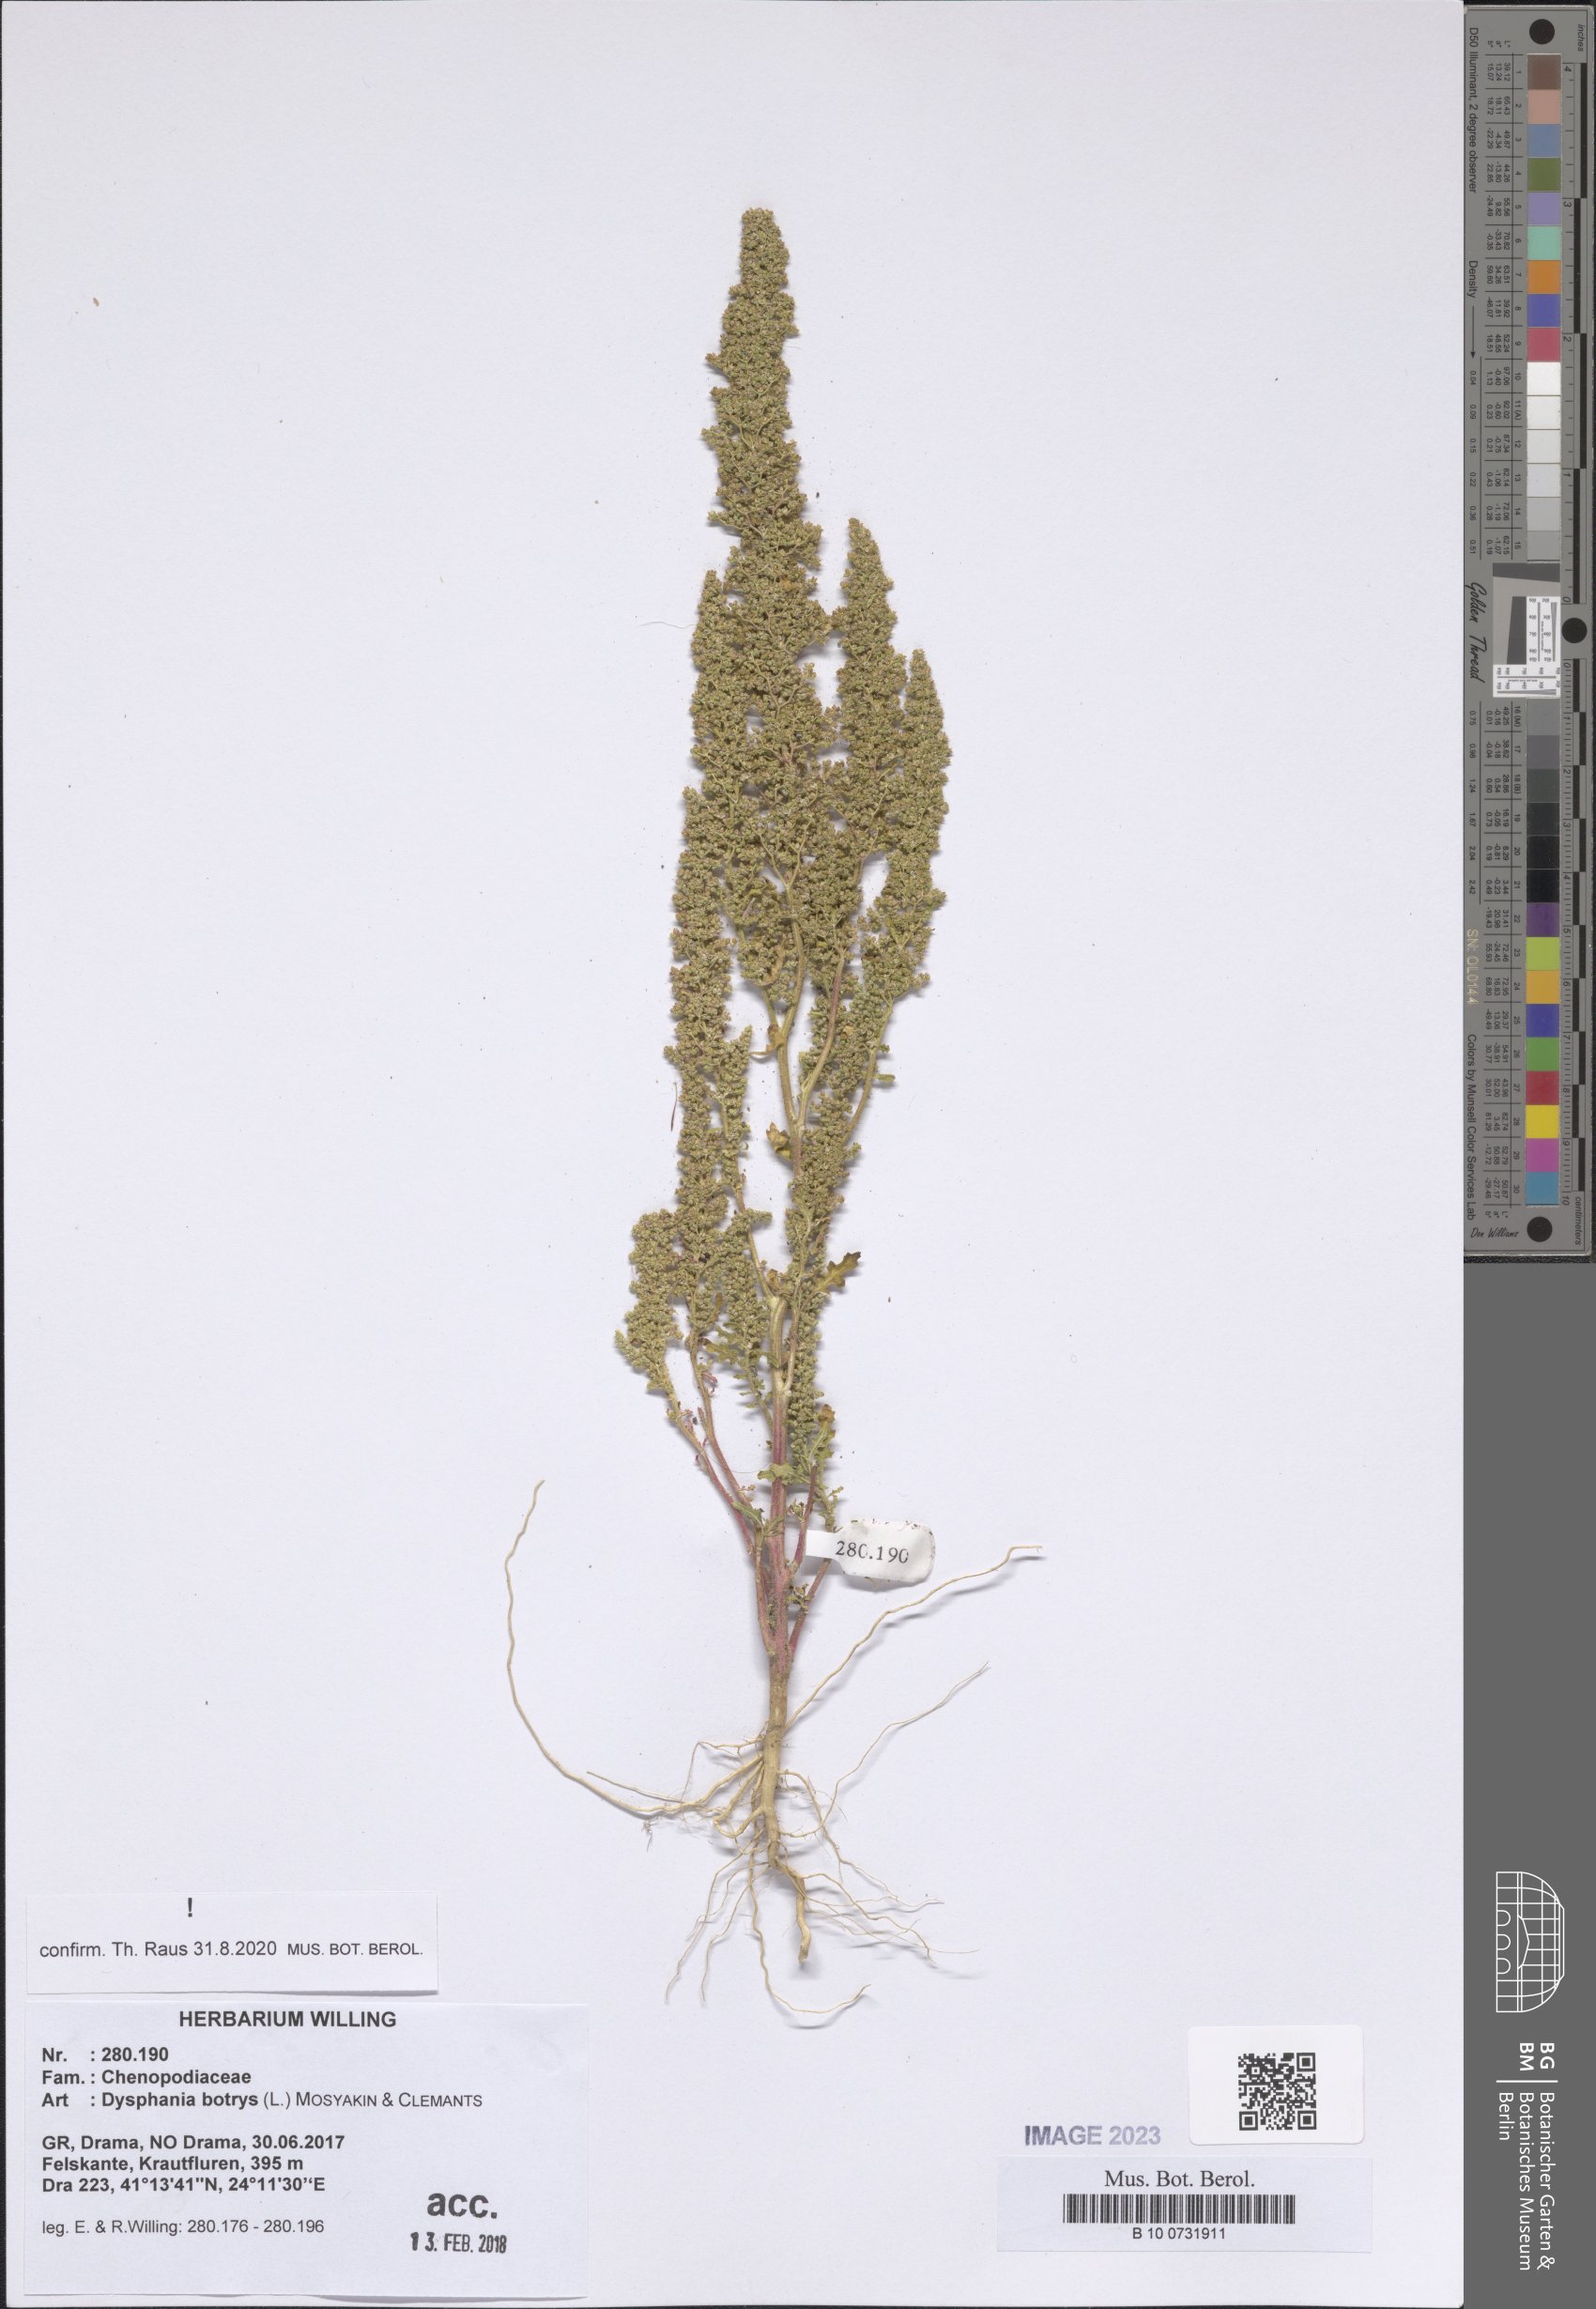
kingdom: Plantae
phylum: Tracheophyta
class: Magnoliopsida
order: Caryophyllales
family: Amaranthaceae
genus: Dysphania
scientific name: Dysphania botrys
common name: Feather-geranium
